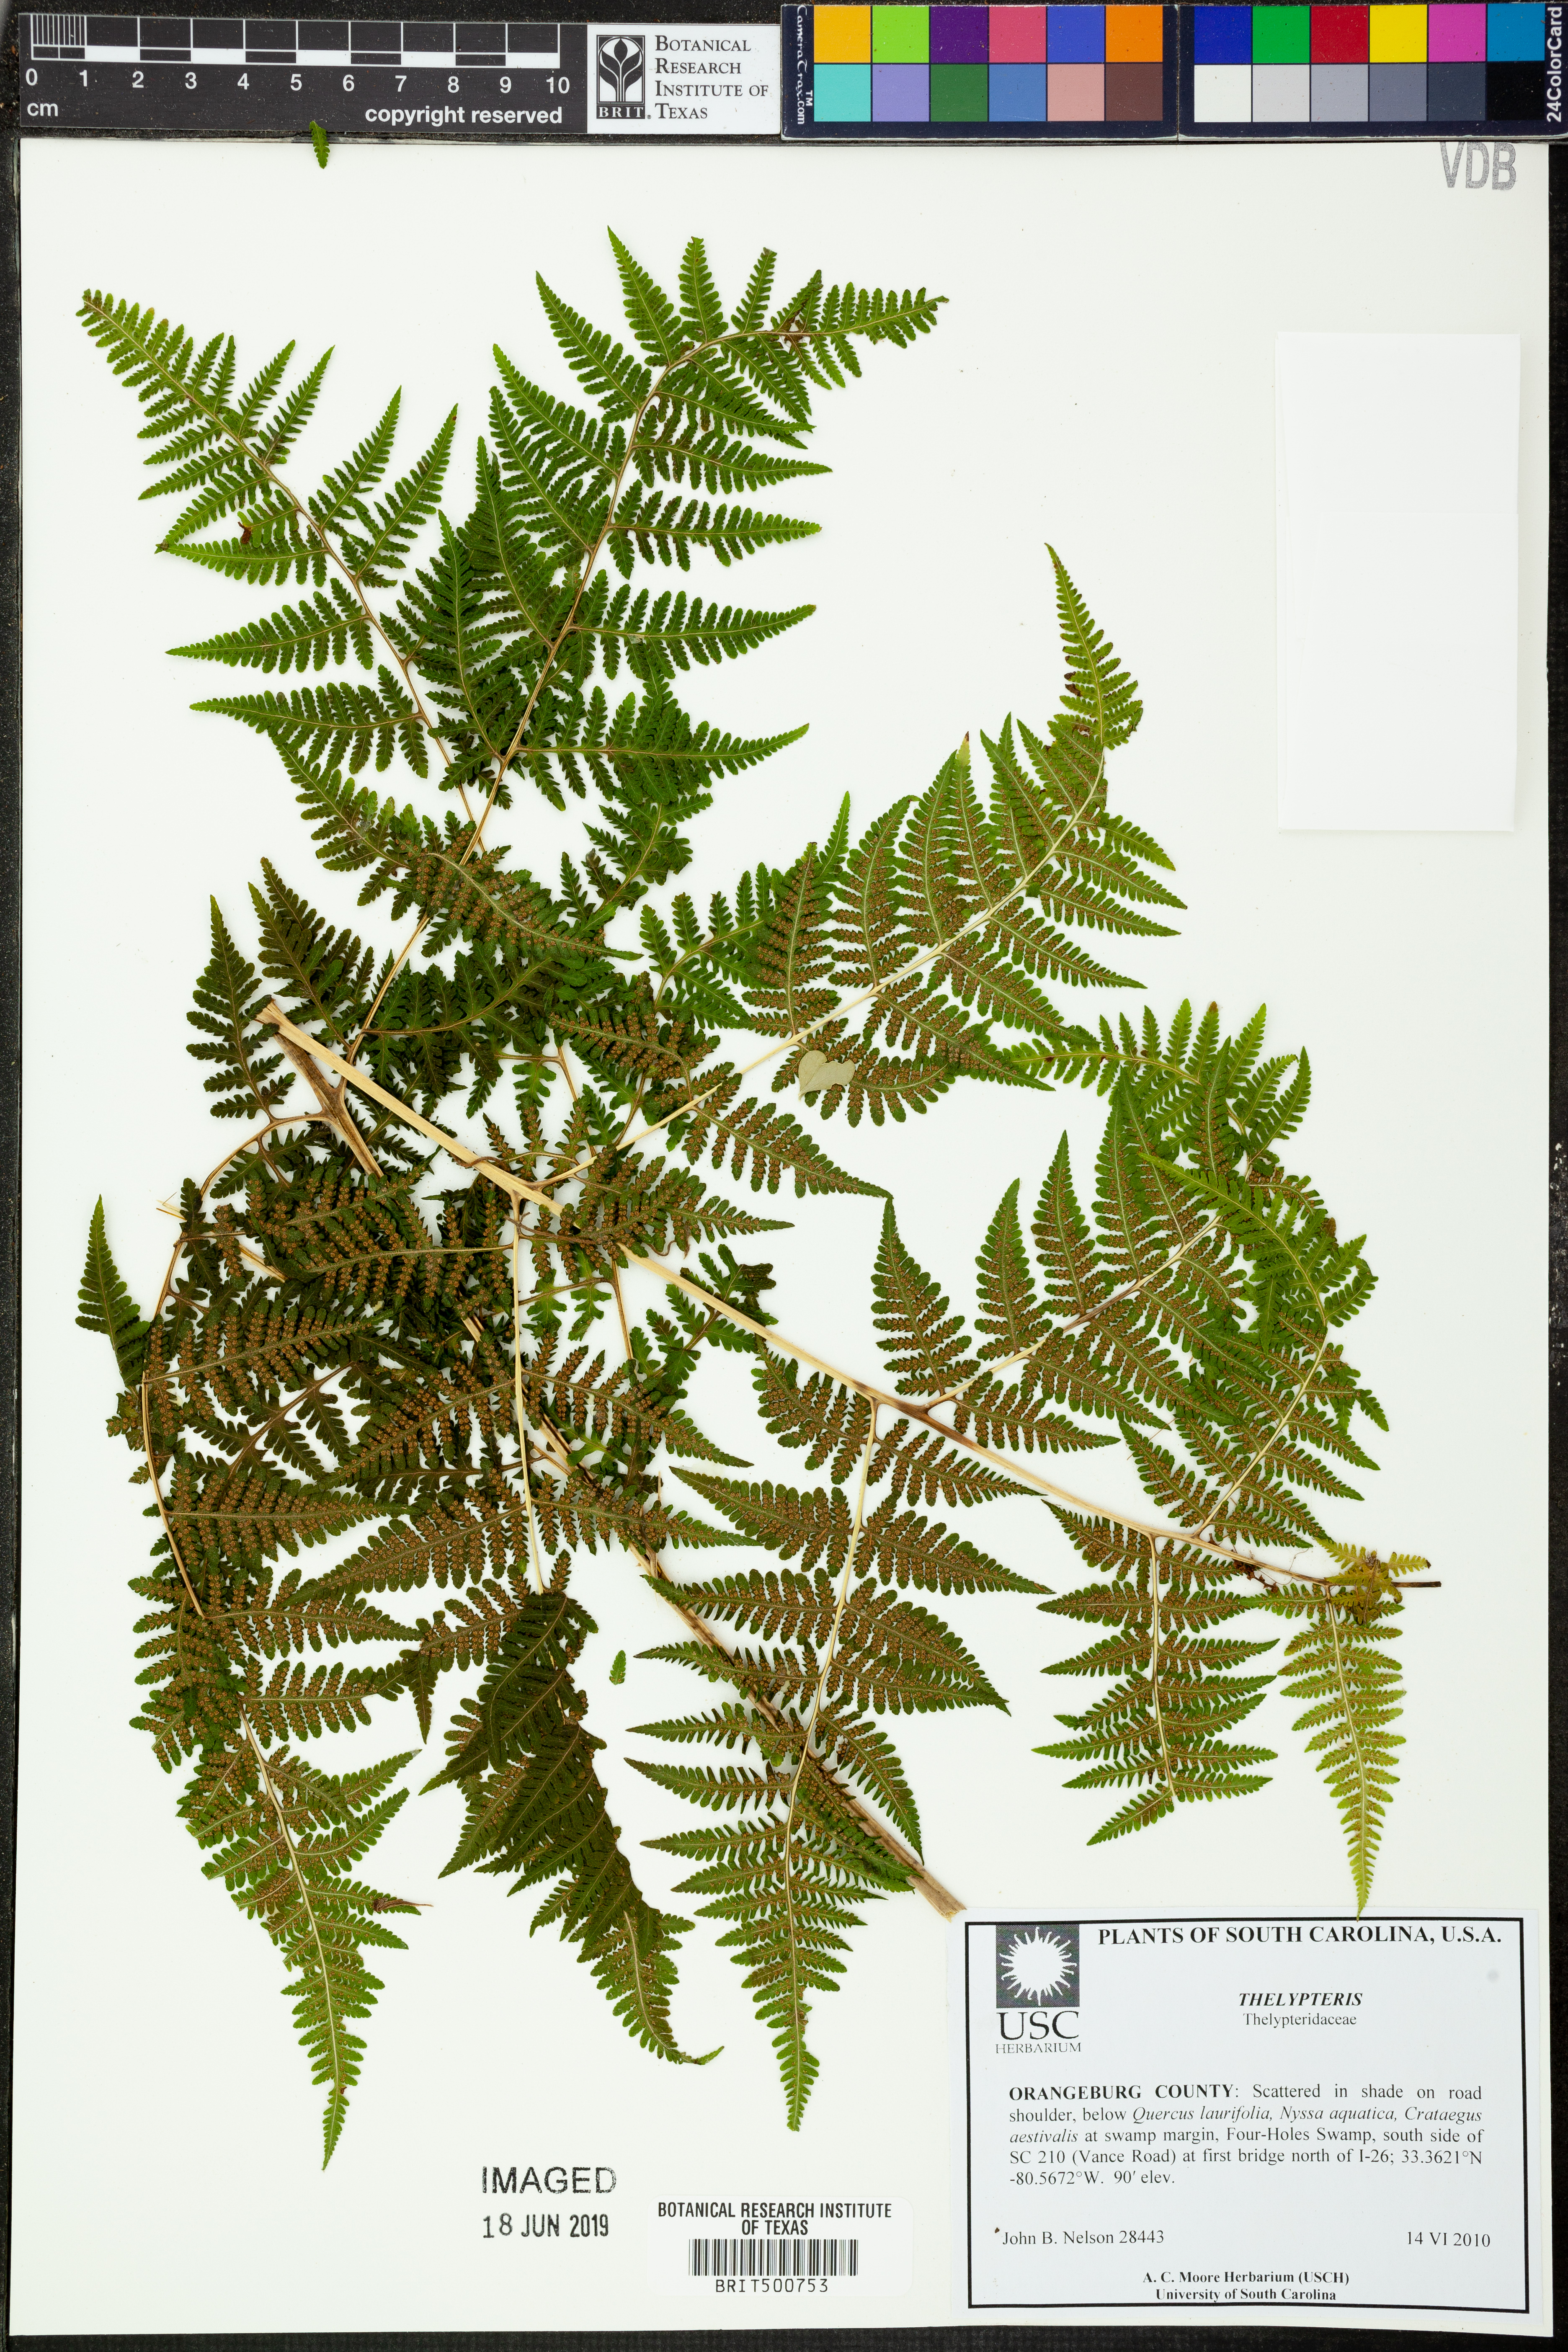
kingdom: Plantae
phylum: Tracheophyta
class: Polypodiopsida
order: Polypodiales
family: Thelypteridaceae
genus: Thelypteris
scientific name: Thelypteris
